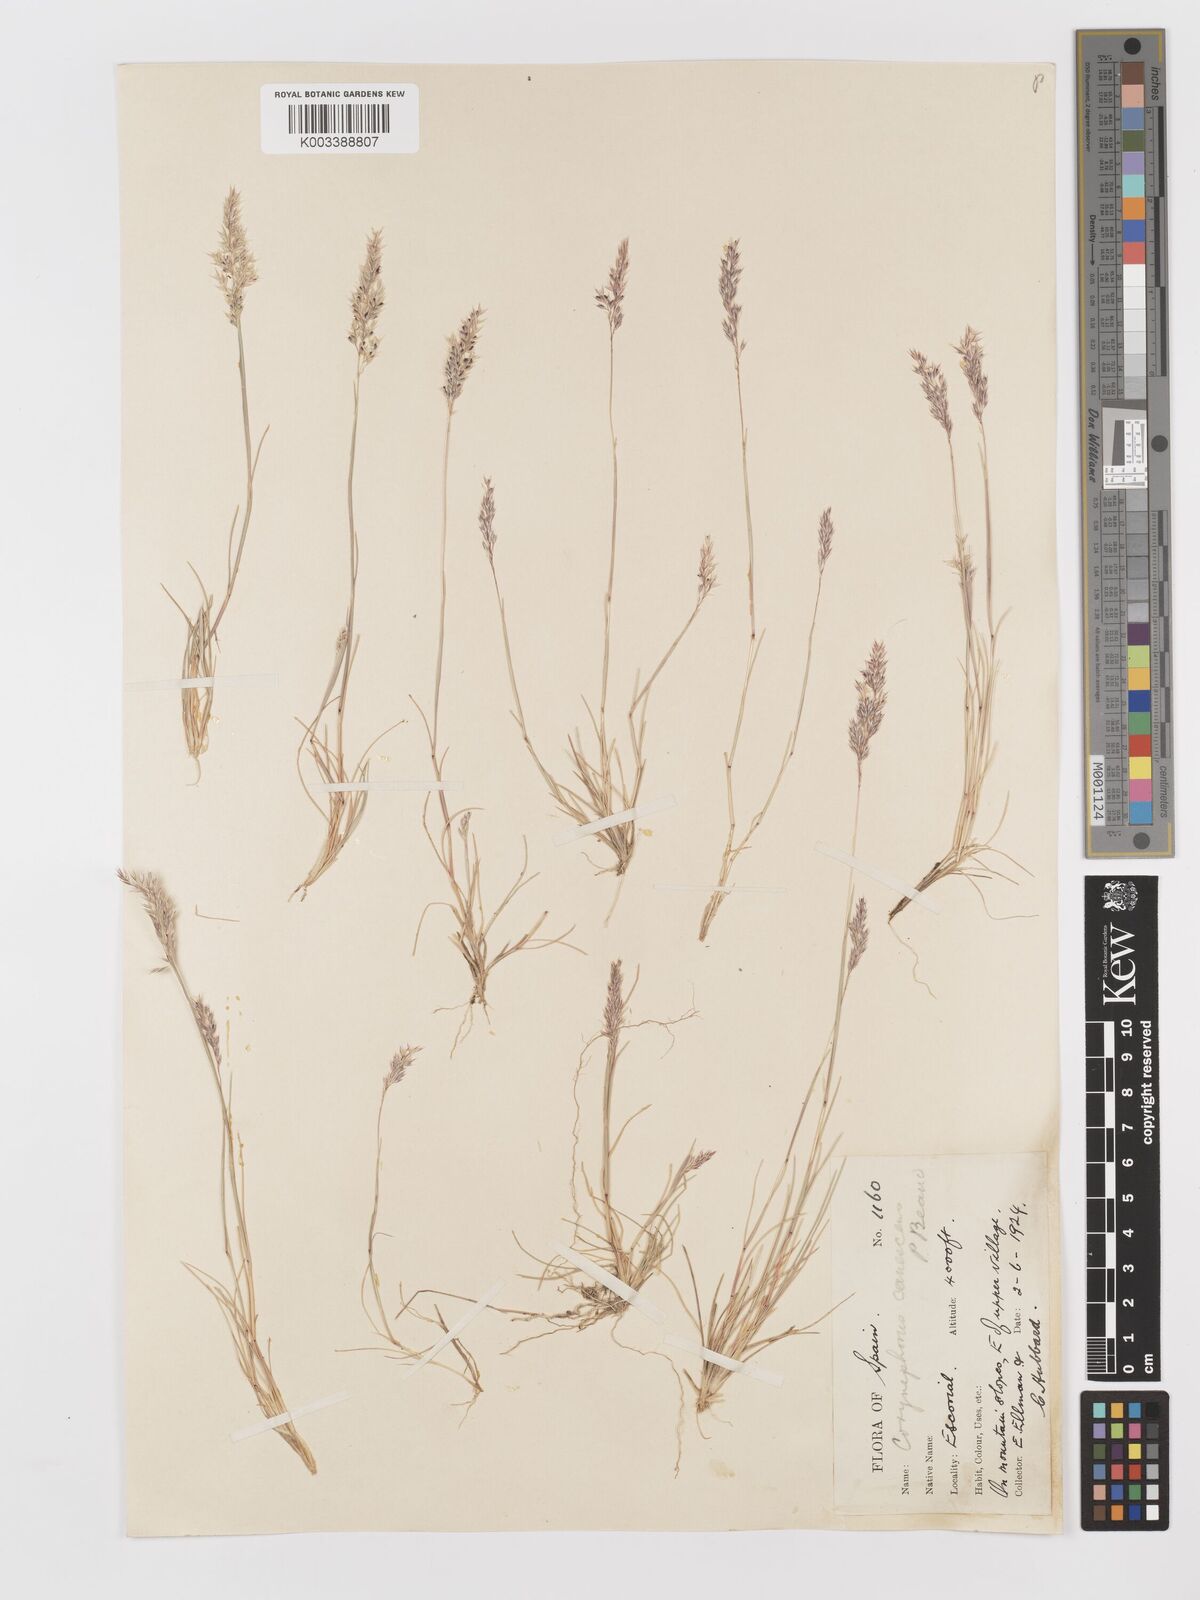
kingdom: Plantae
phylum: Tracheophyta
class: Liliopsida
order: Poales
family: Poaceae
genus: Corynephorus
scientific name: Corynephorus canescens
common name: Grey hair-grass
